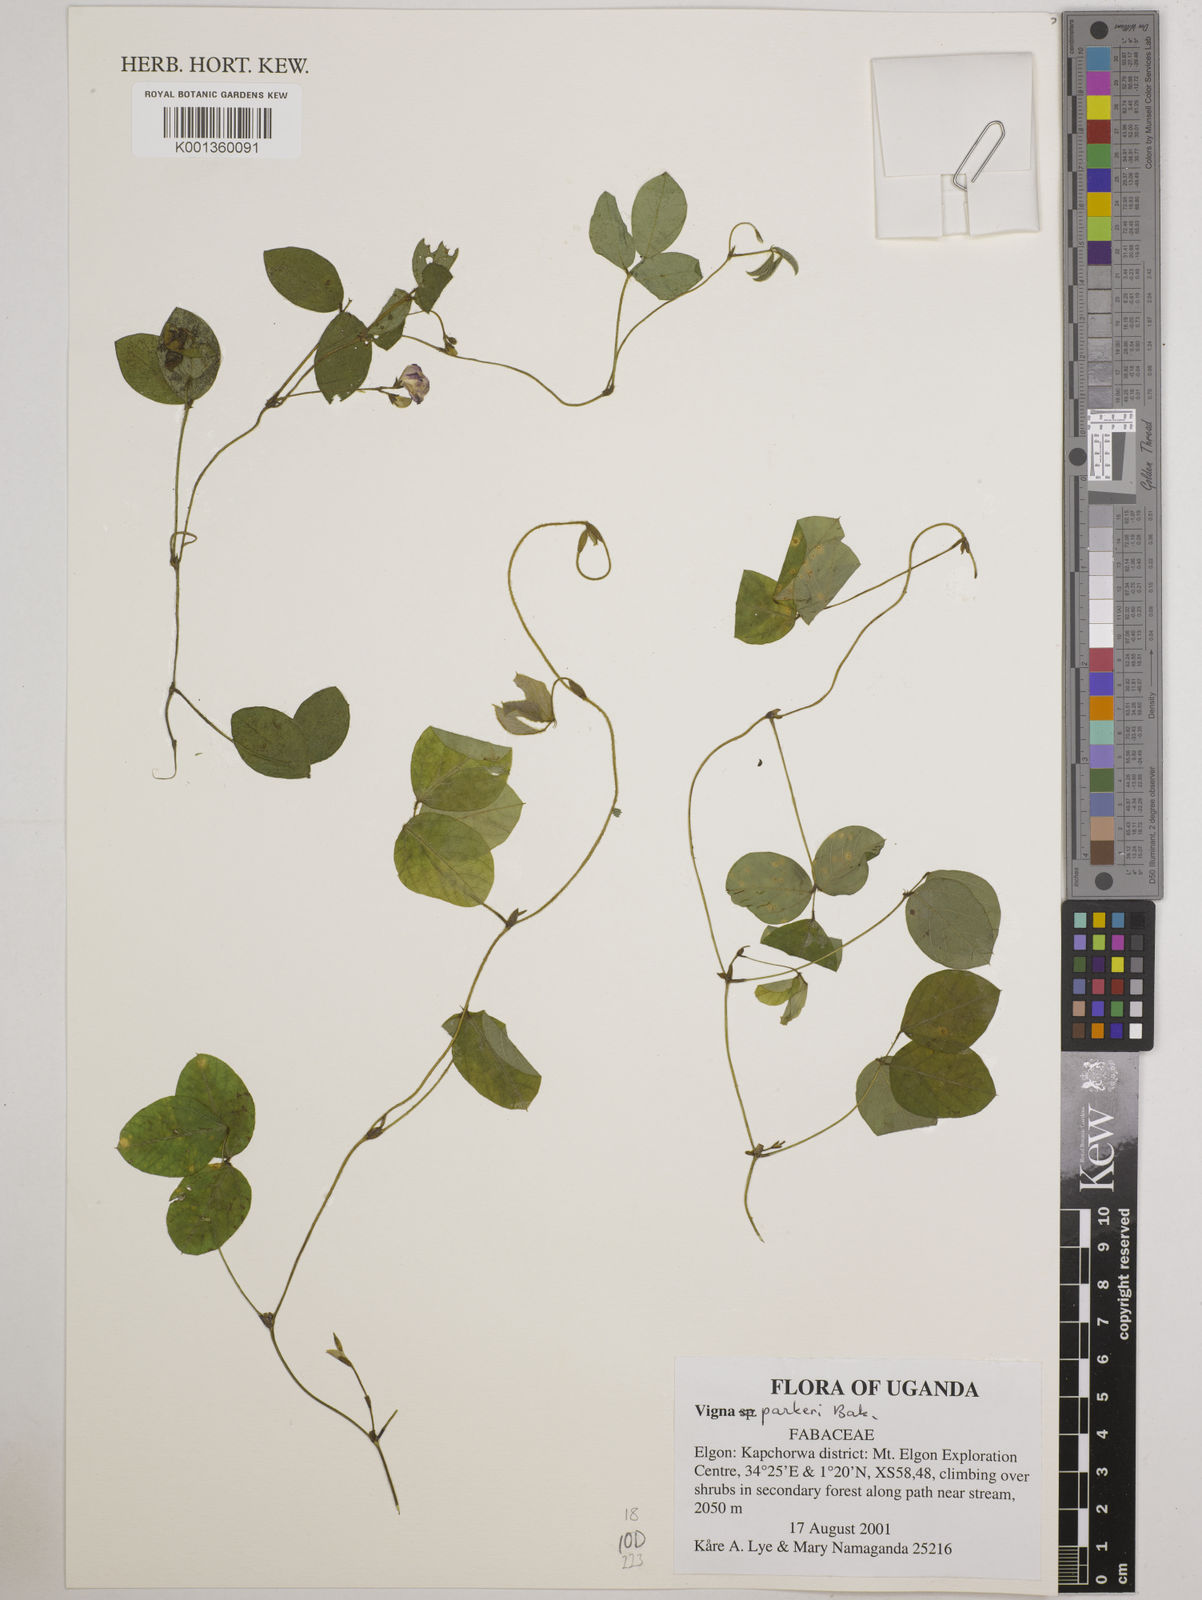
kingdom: Plantae
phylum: Tracheophyta
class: Magnoliopsida
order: Fabales
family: Fabaceae
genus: Vigna
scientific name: Vigna parkeri
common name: Creeping vigna
